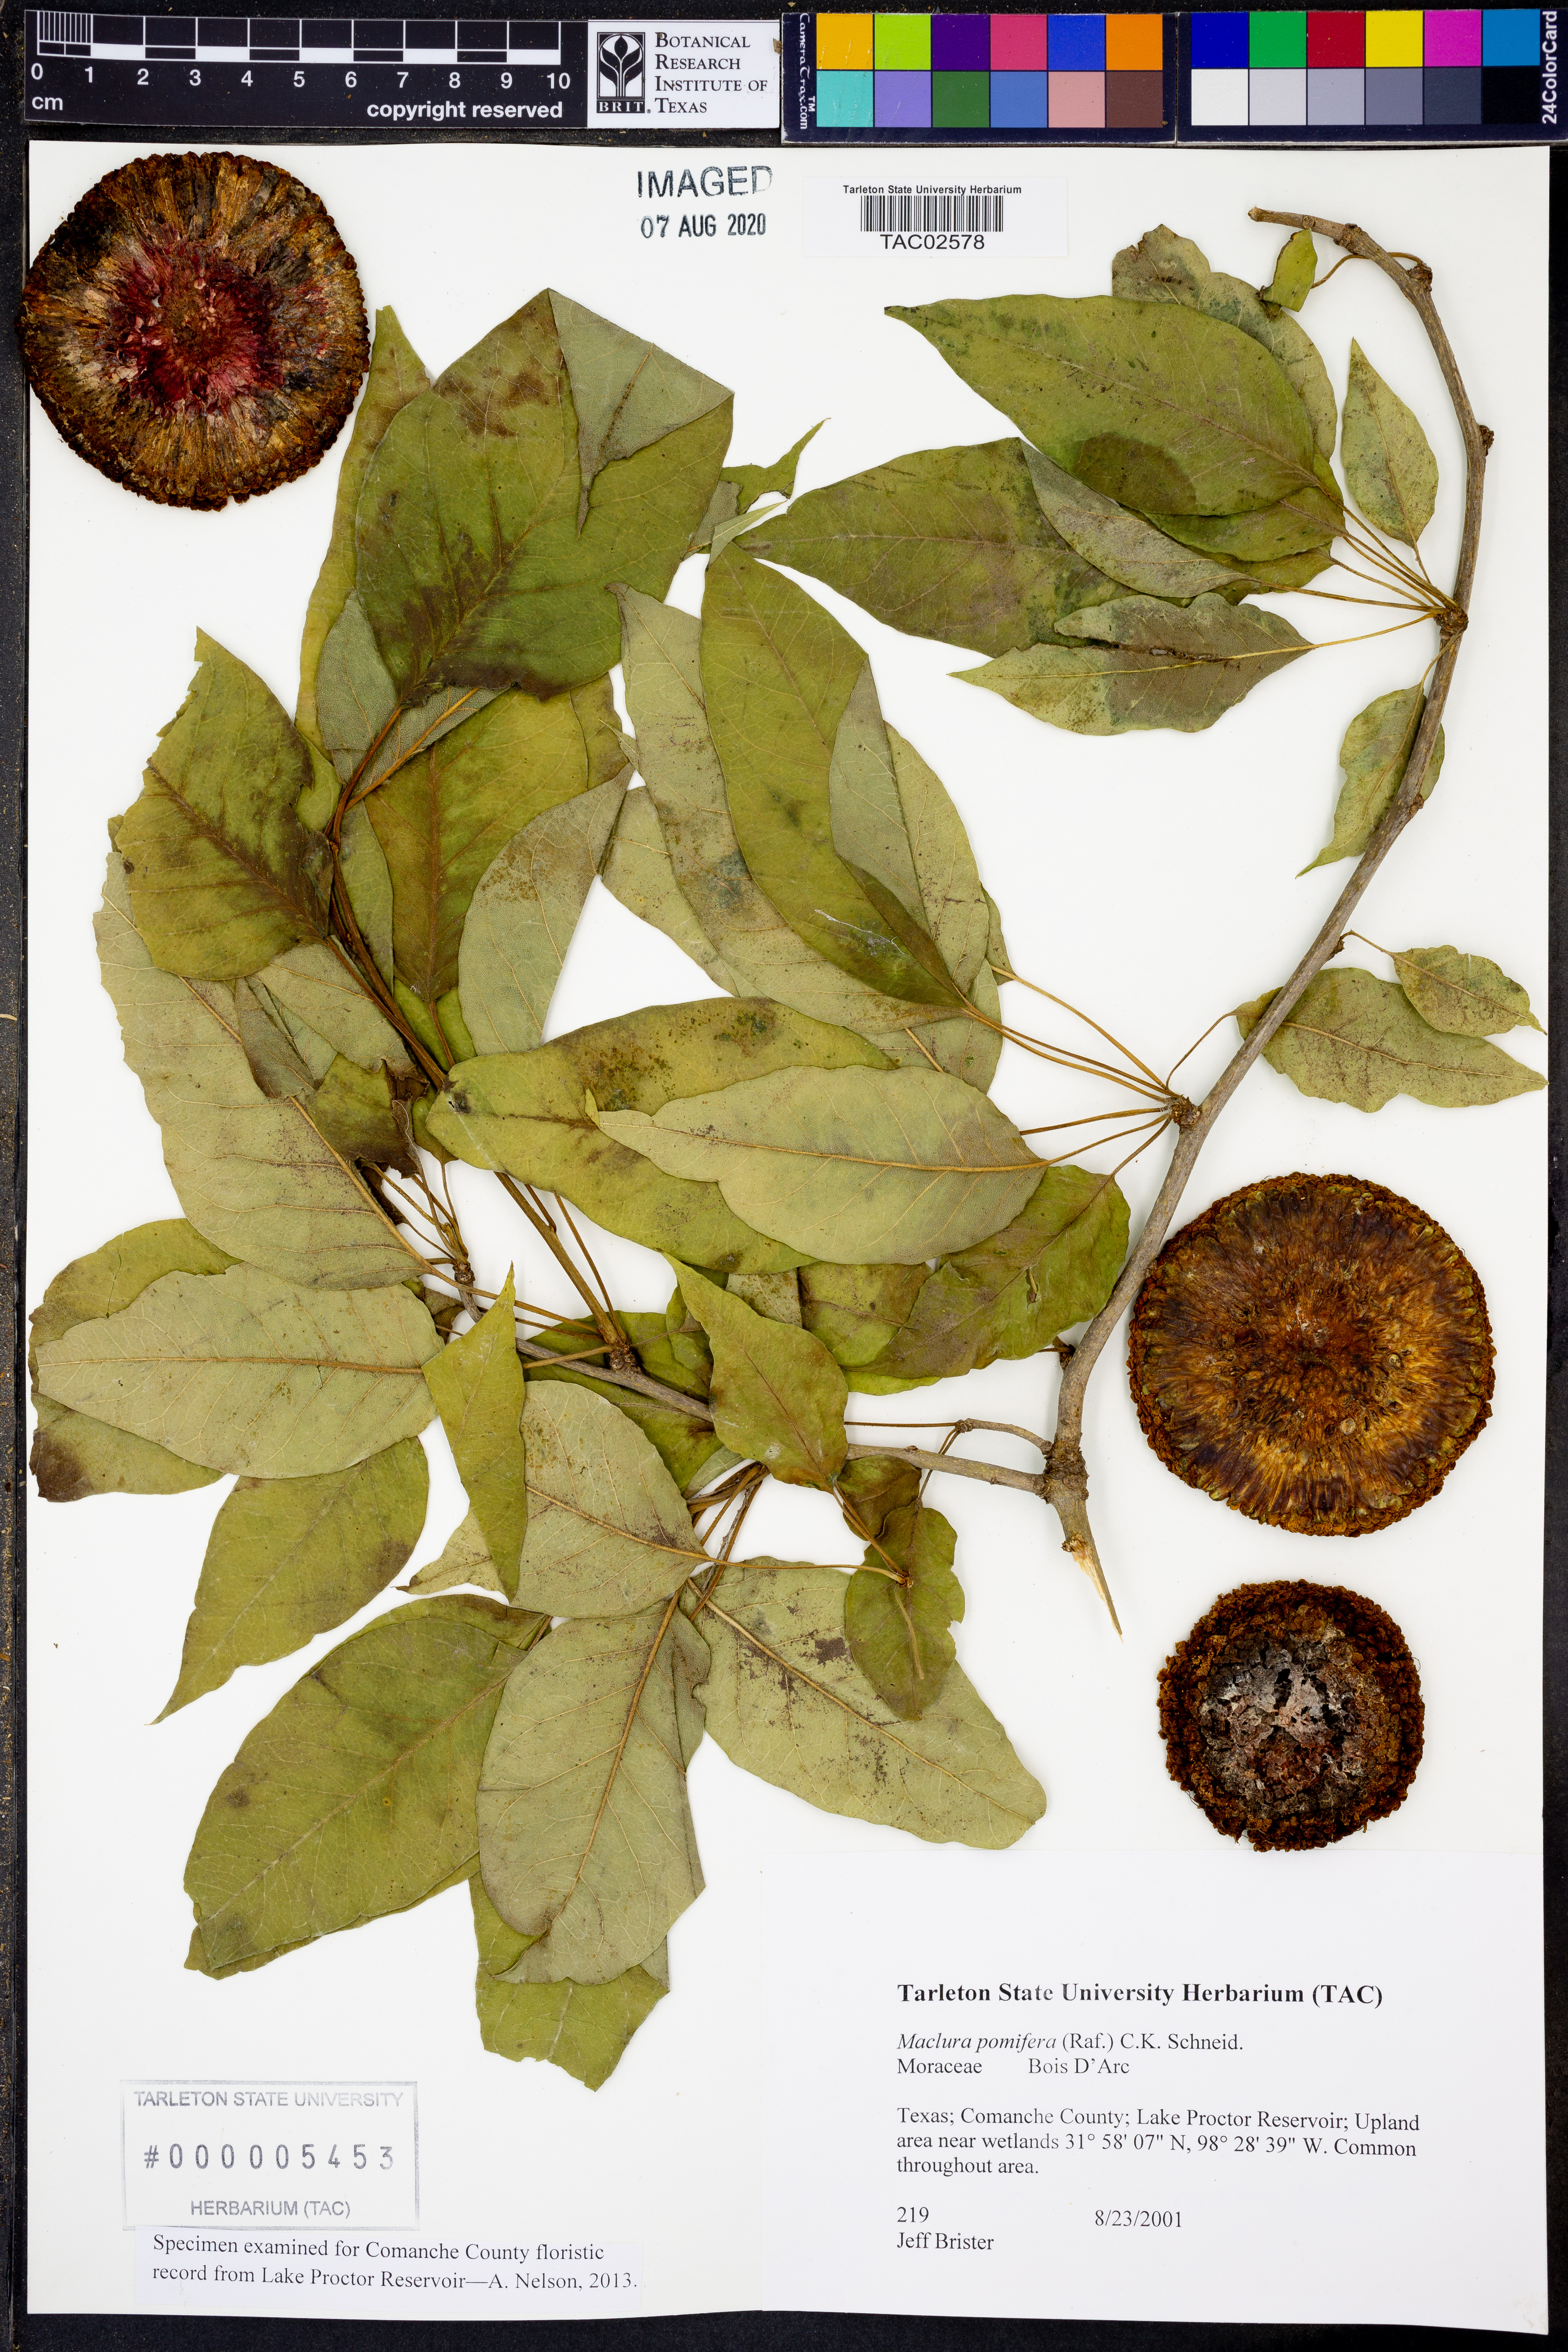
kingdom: Plantae
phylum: Tracheophyta
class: Magnoliopsida
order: Rosales
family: Moraceae
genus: Maclura
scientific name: Maclura pomifera
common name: Osage-orange
